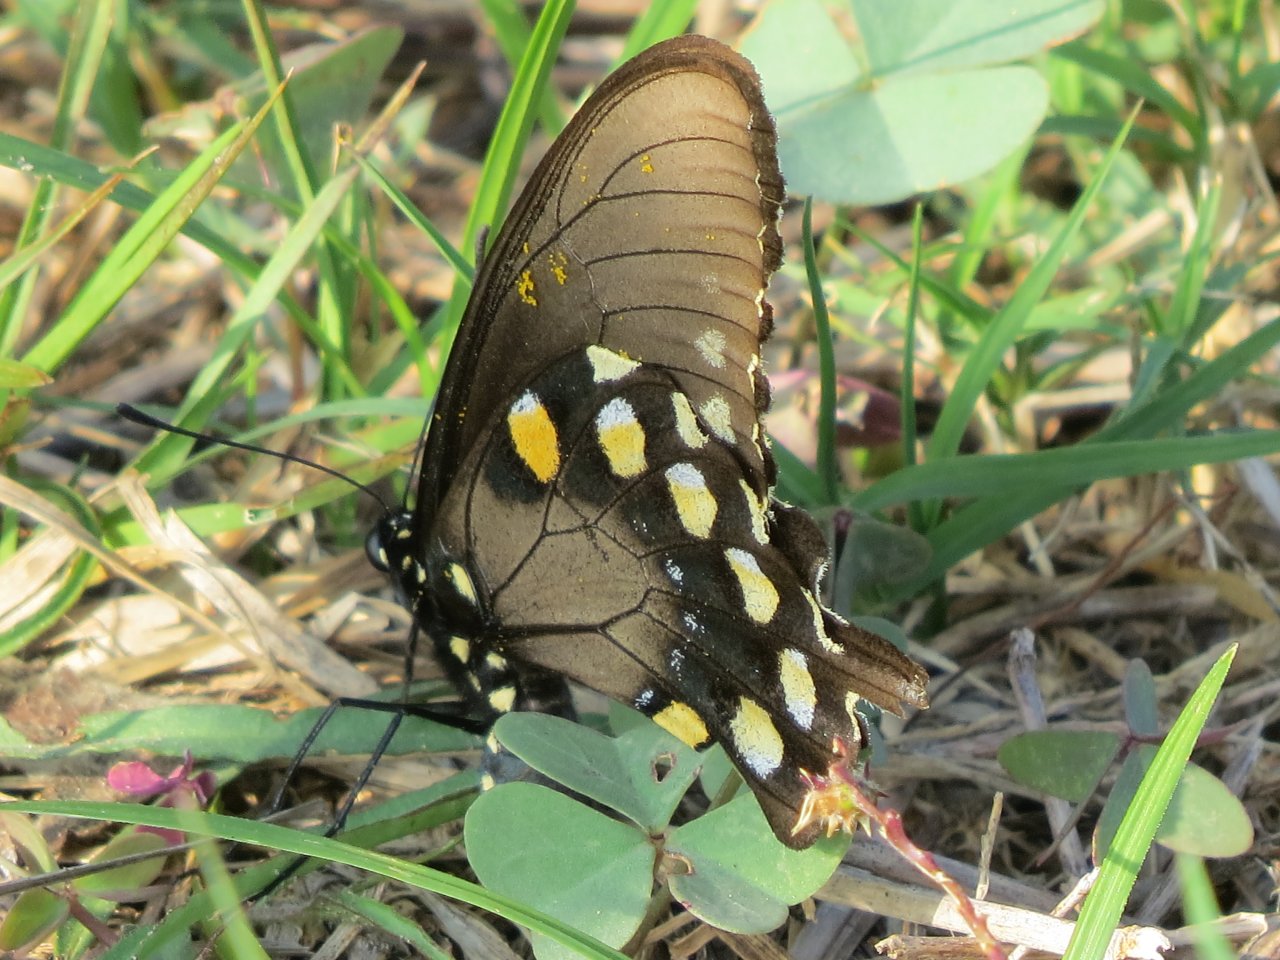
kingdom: Animalia
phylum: Arthropoda
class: Insecta
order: Lepidoptera
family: Papilionidae
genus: Battus
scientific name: Battus philenor
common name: Pipevine Swallowtail
